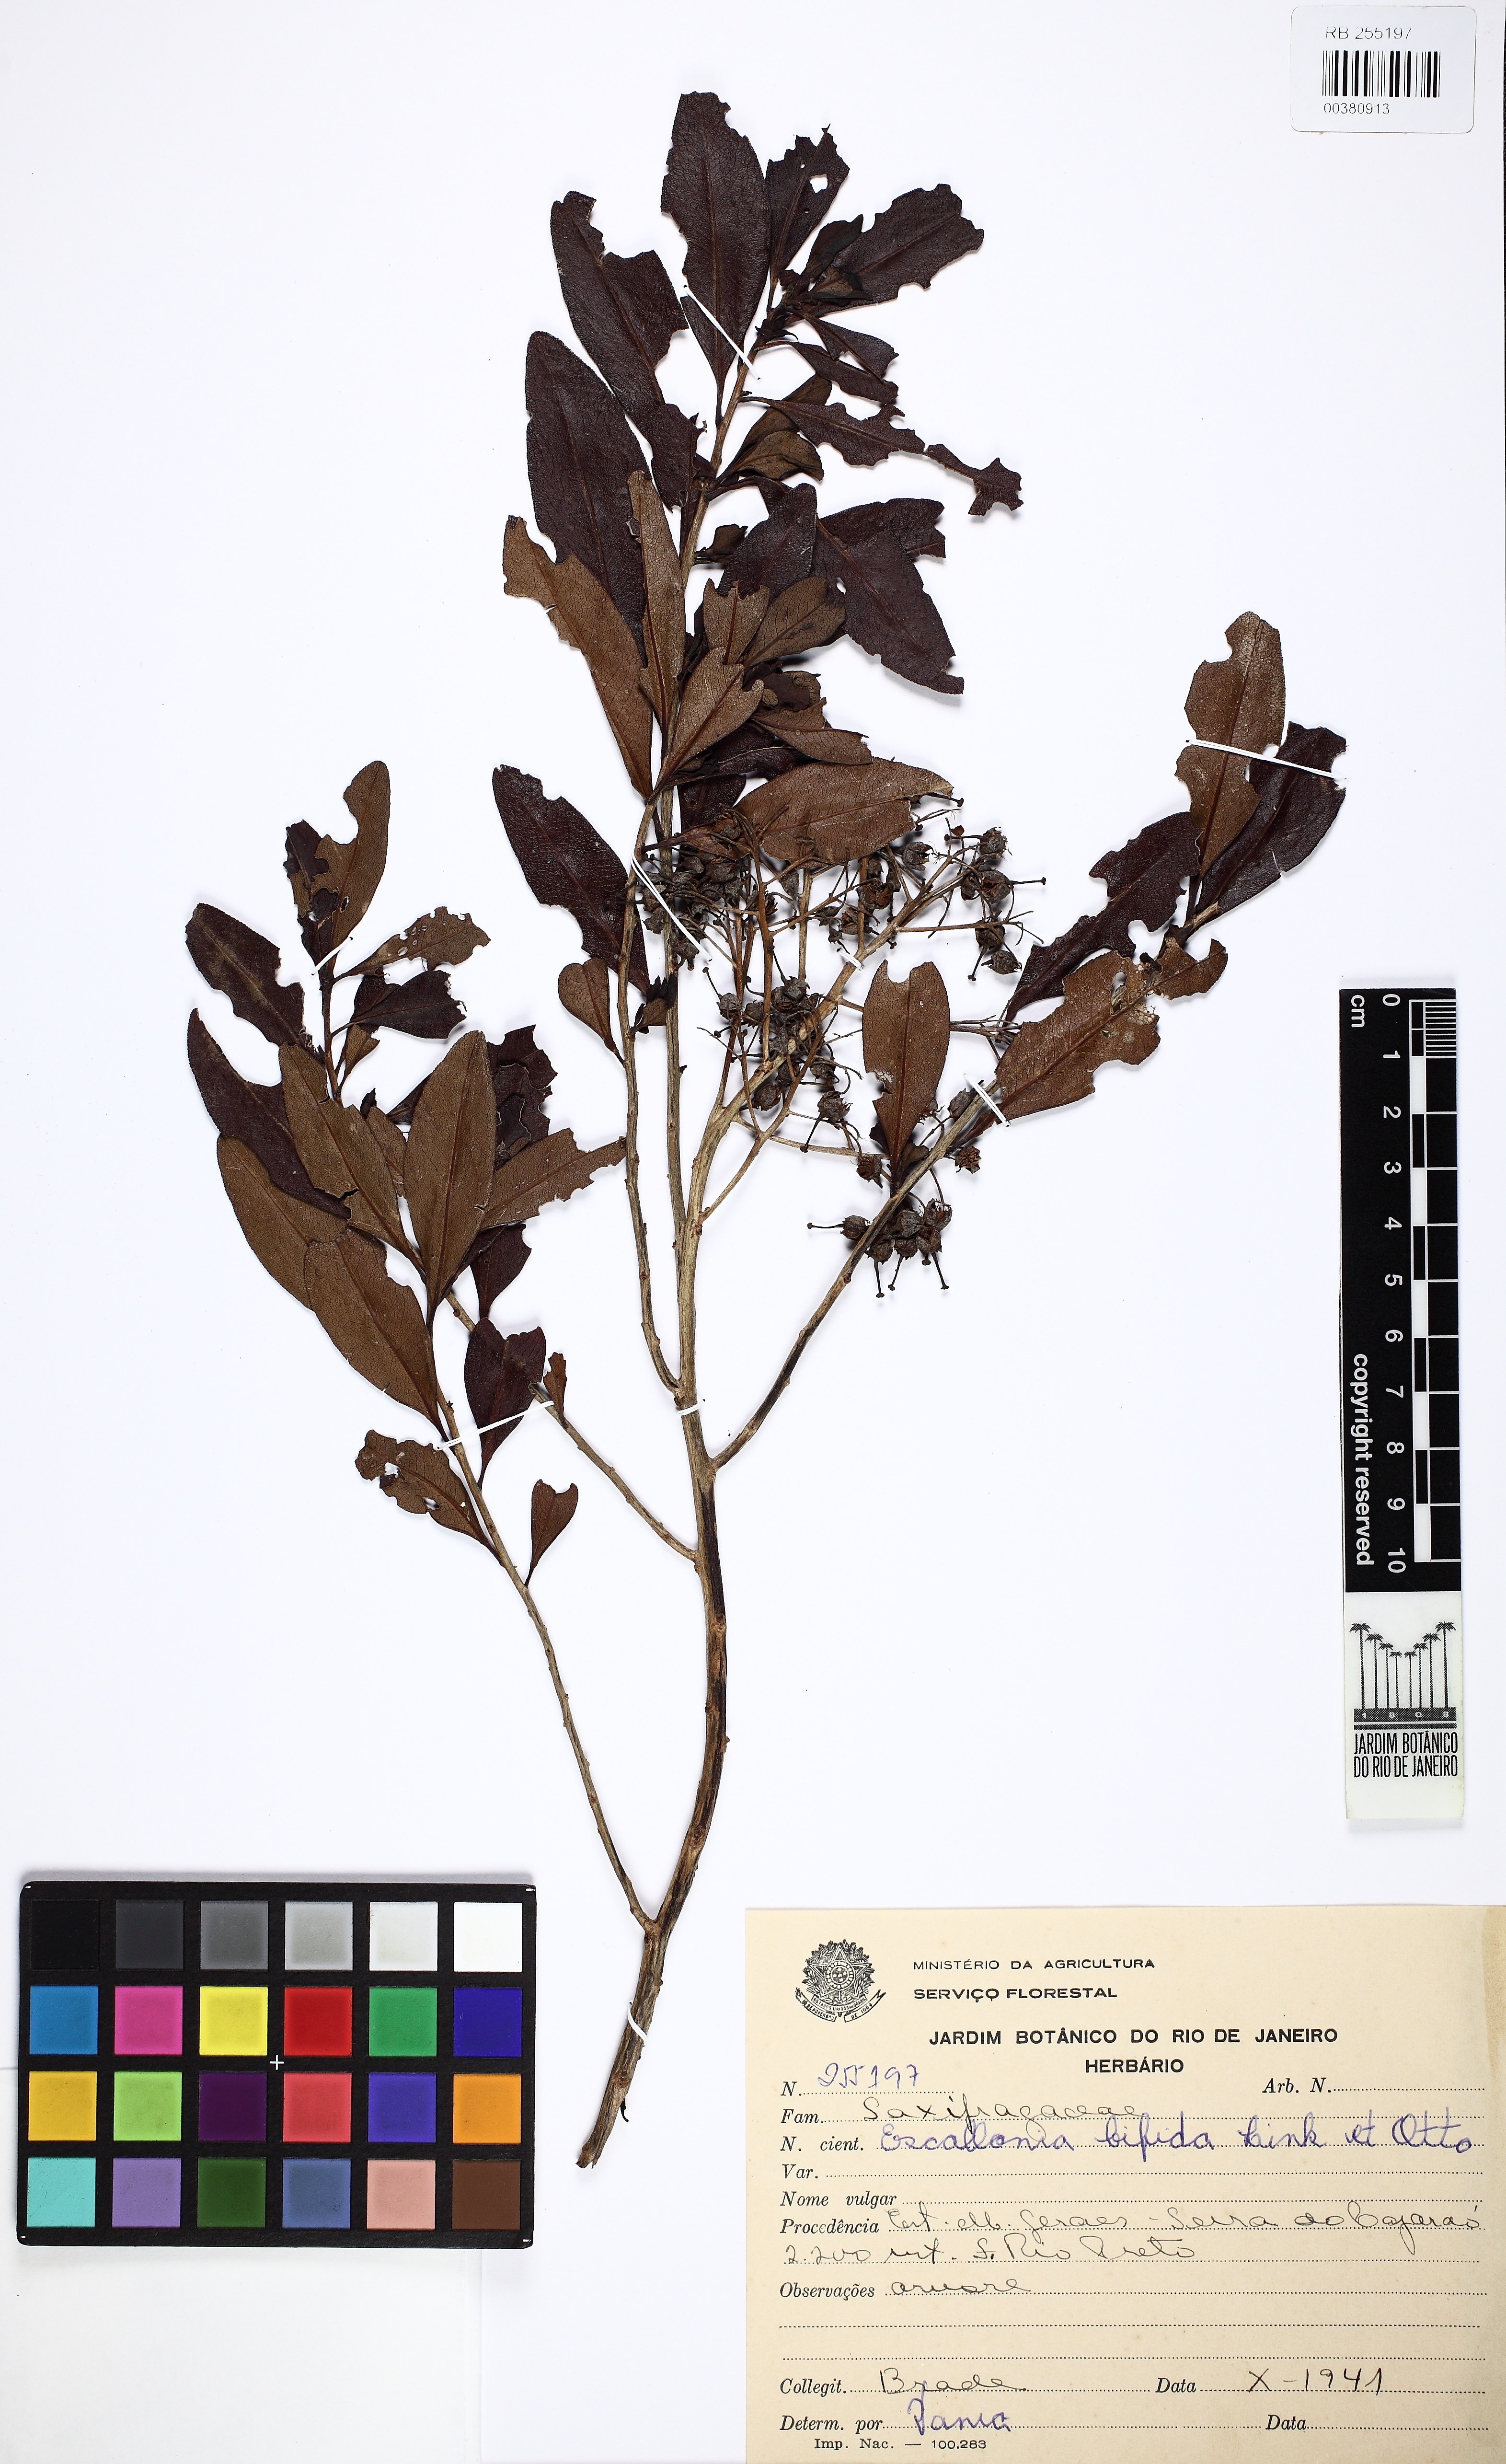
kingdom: Plantae
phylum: Tracheophyta
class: Magnoliopsida
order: Escalloniales
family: Escalloniaceae
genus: Escallonia
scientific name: Escallonia bifida
